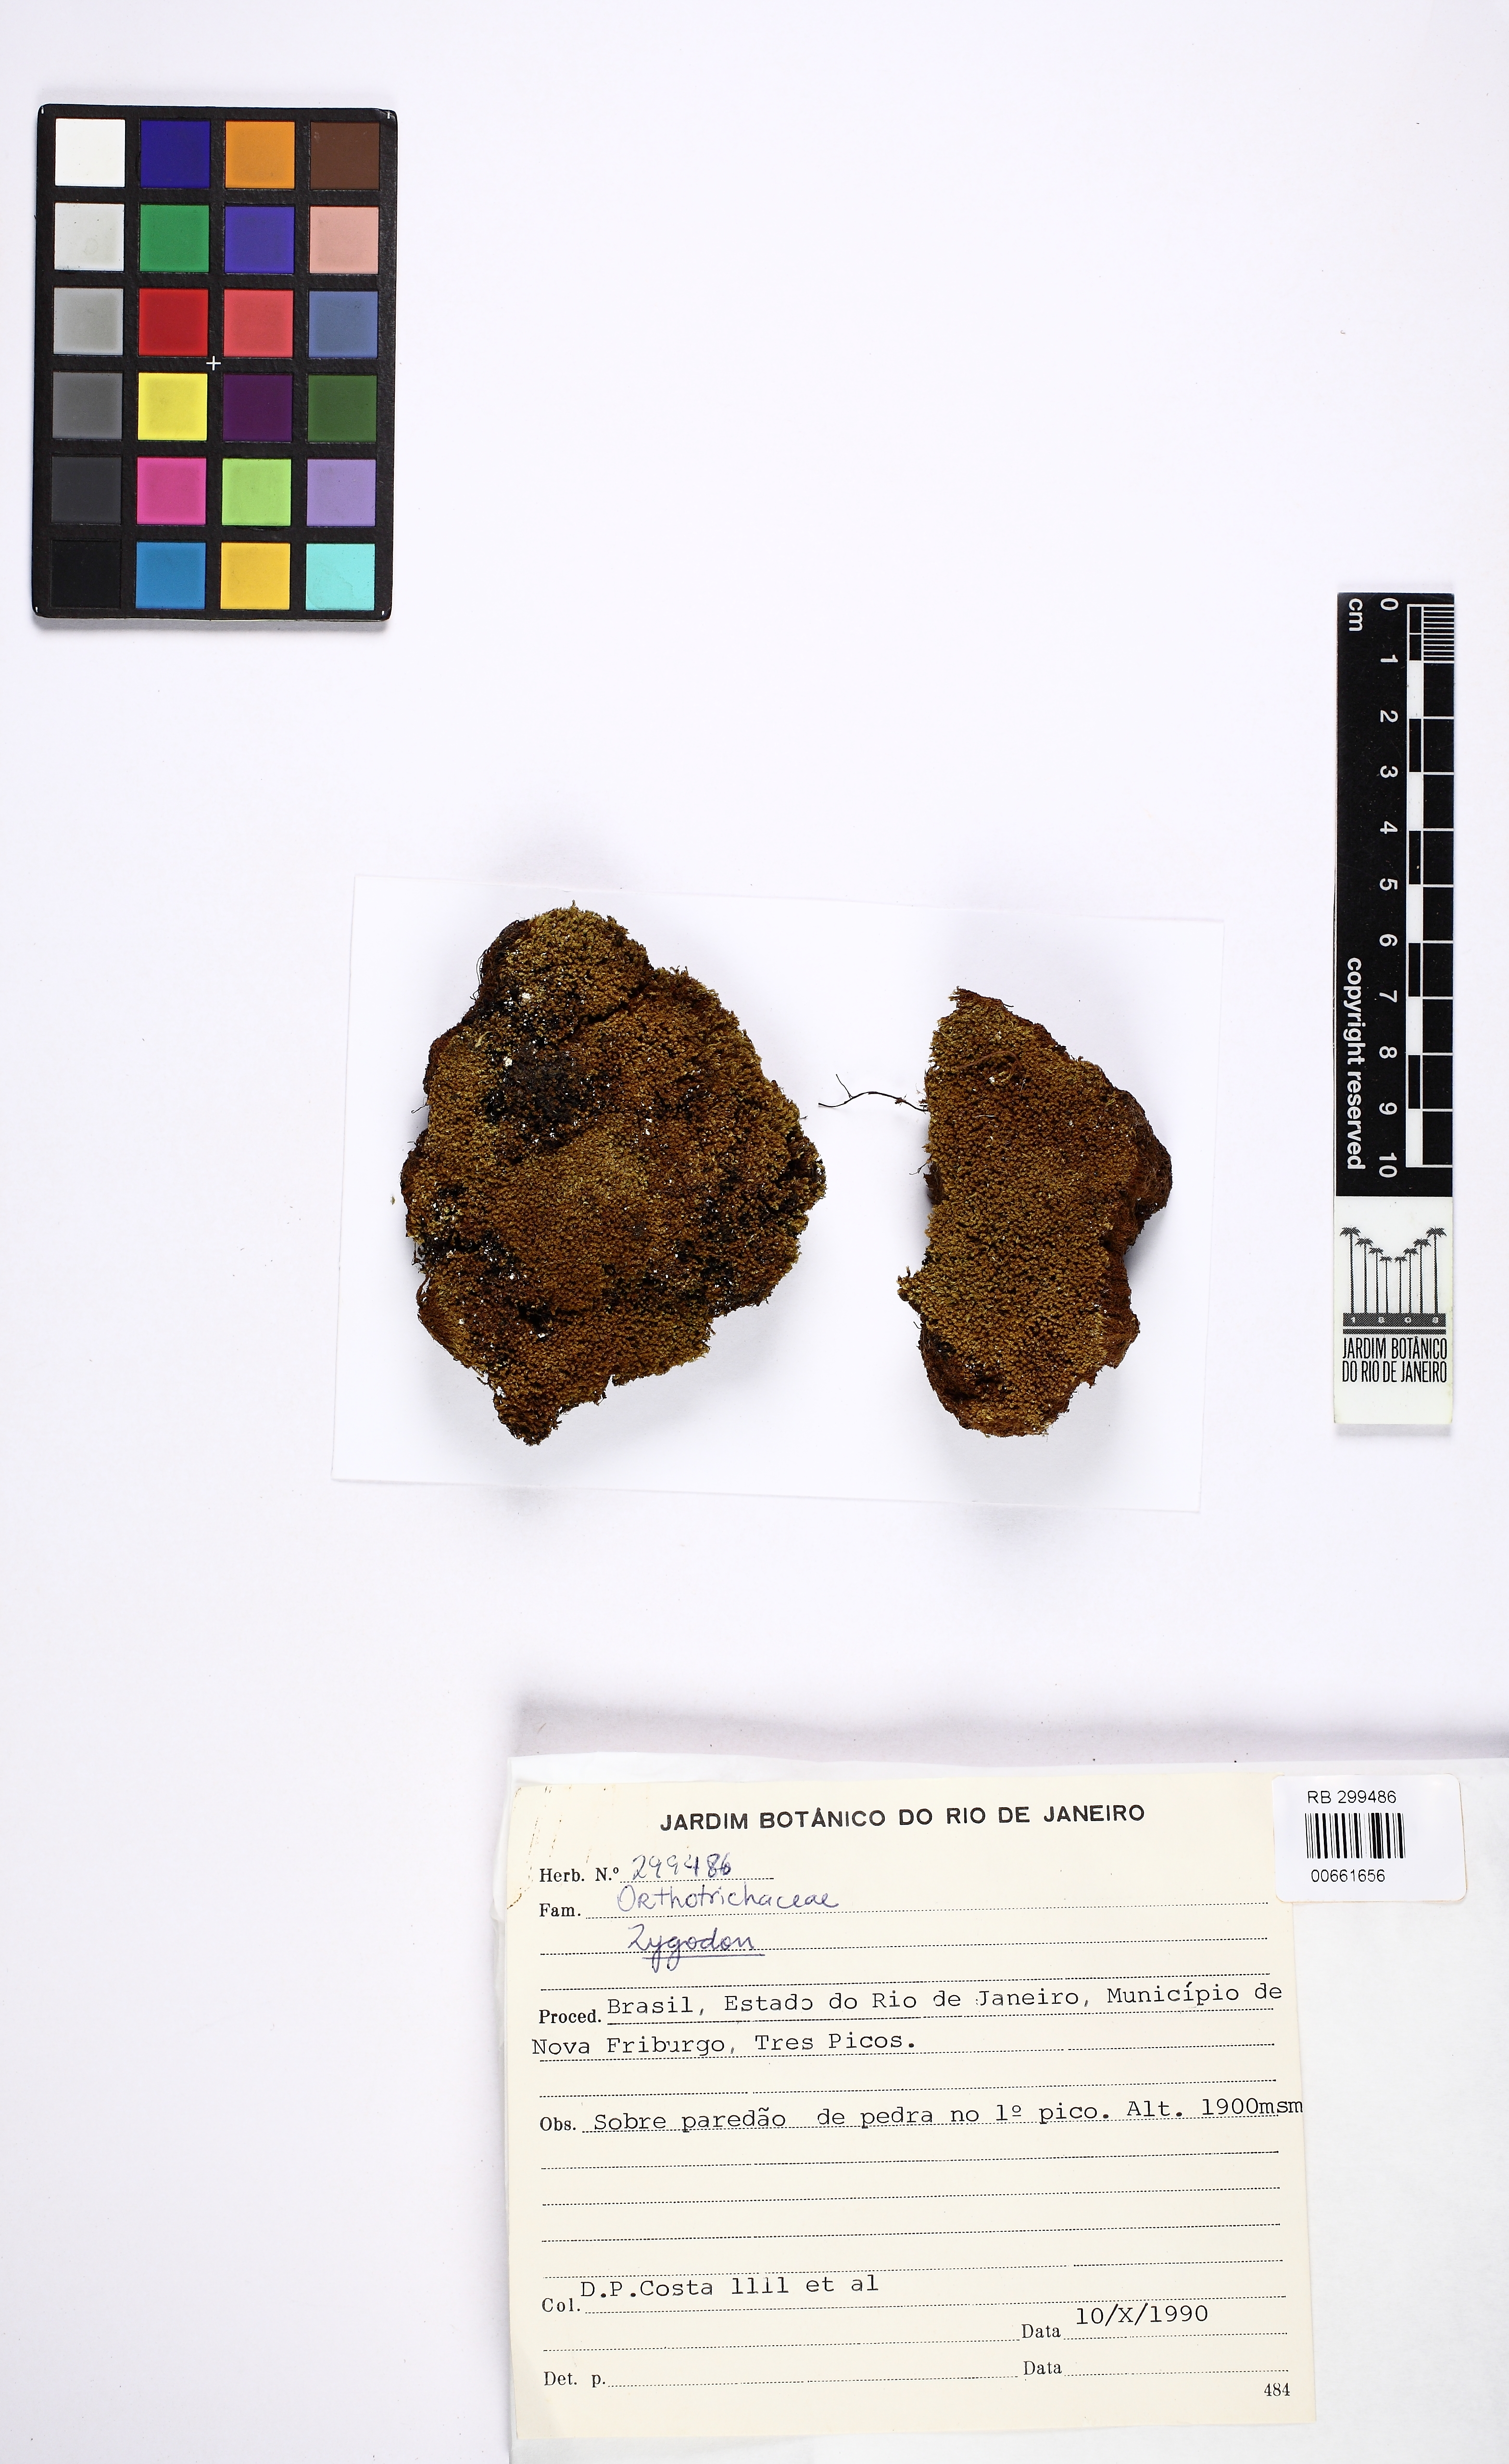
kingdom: Plantae
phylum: Bryophyta
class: Bryopsida
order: Orthotrichales
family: Orthotrichaceae
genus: Zygodon
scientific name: Zygodon
